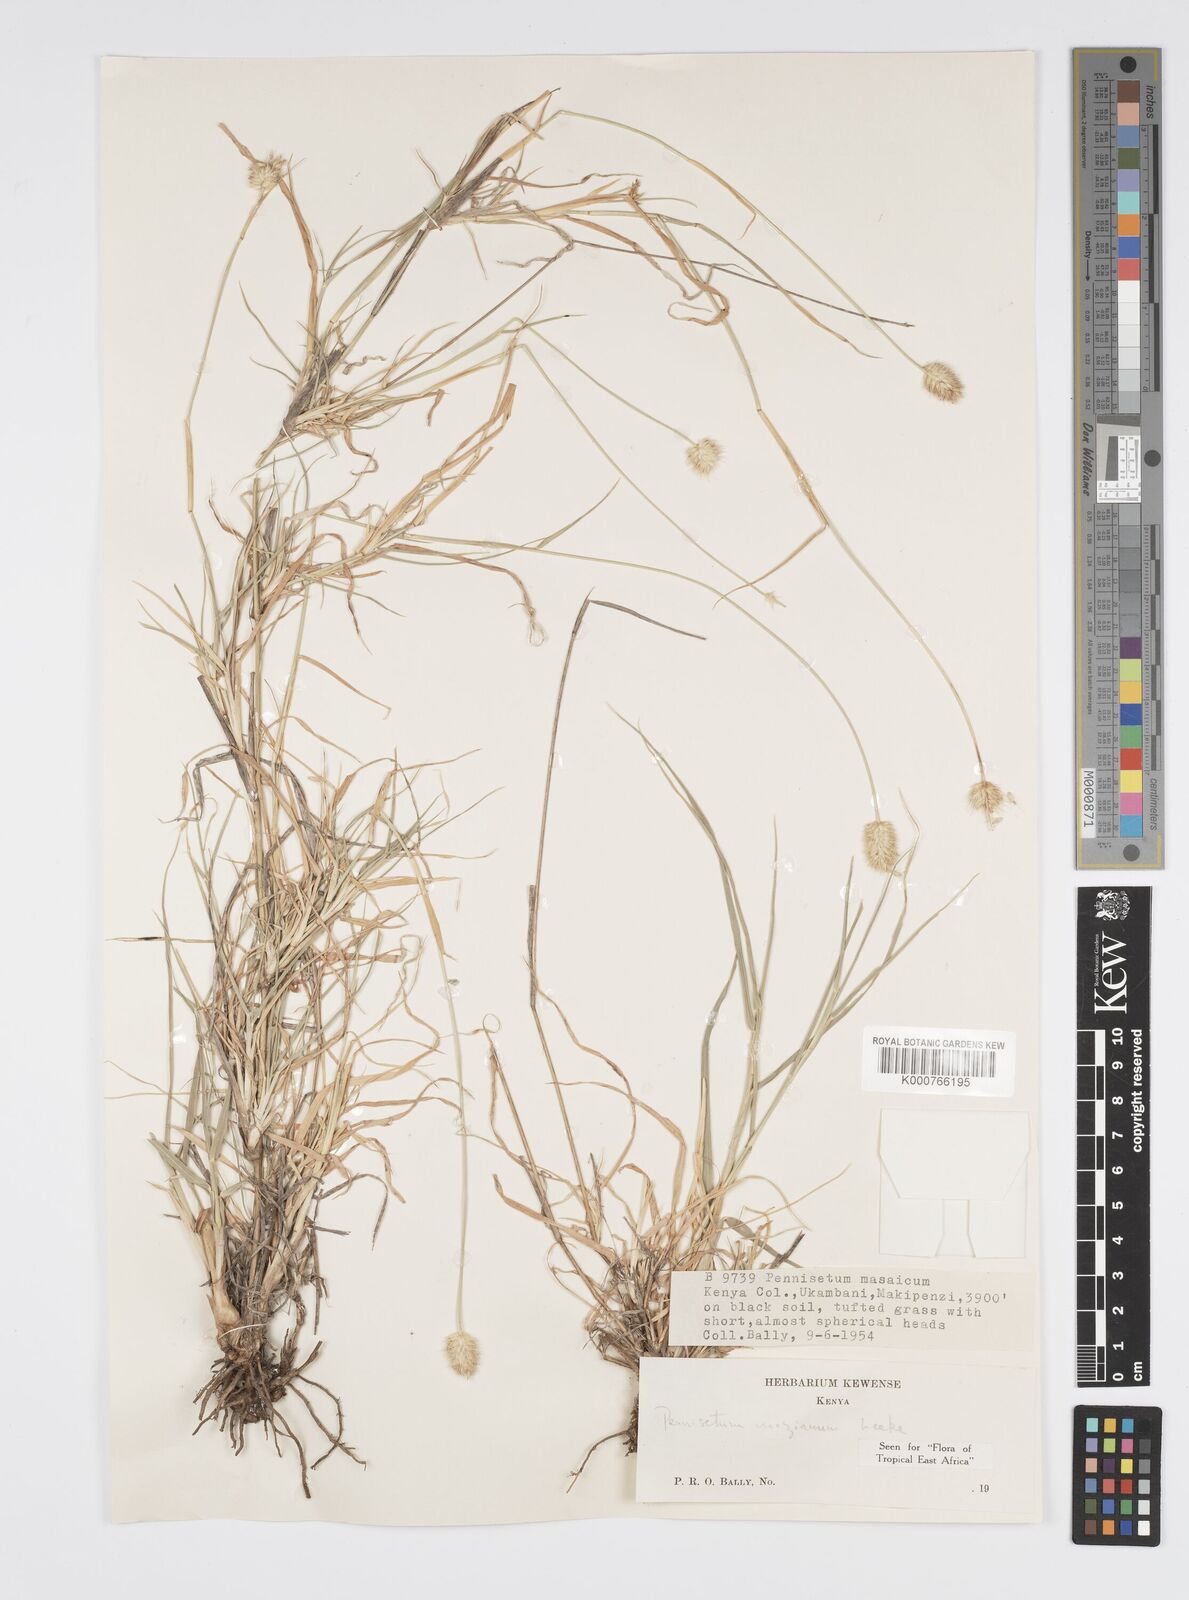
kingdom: Plantae
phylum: Tracheophyta
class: Liliopsida
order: Poales
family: Poaceae
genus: Cenchrus
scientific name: Cenchrus mezianus
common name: Bamboo grass
